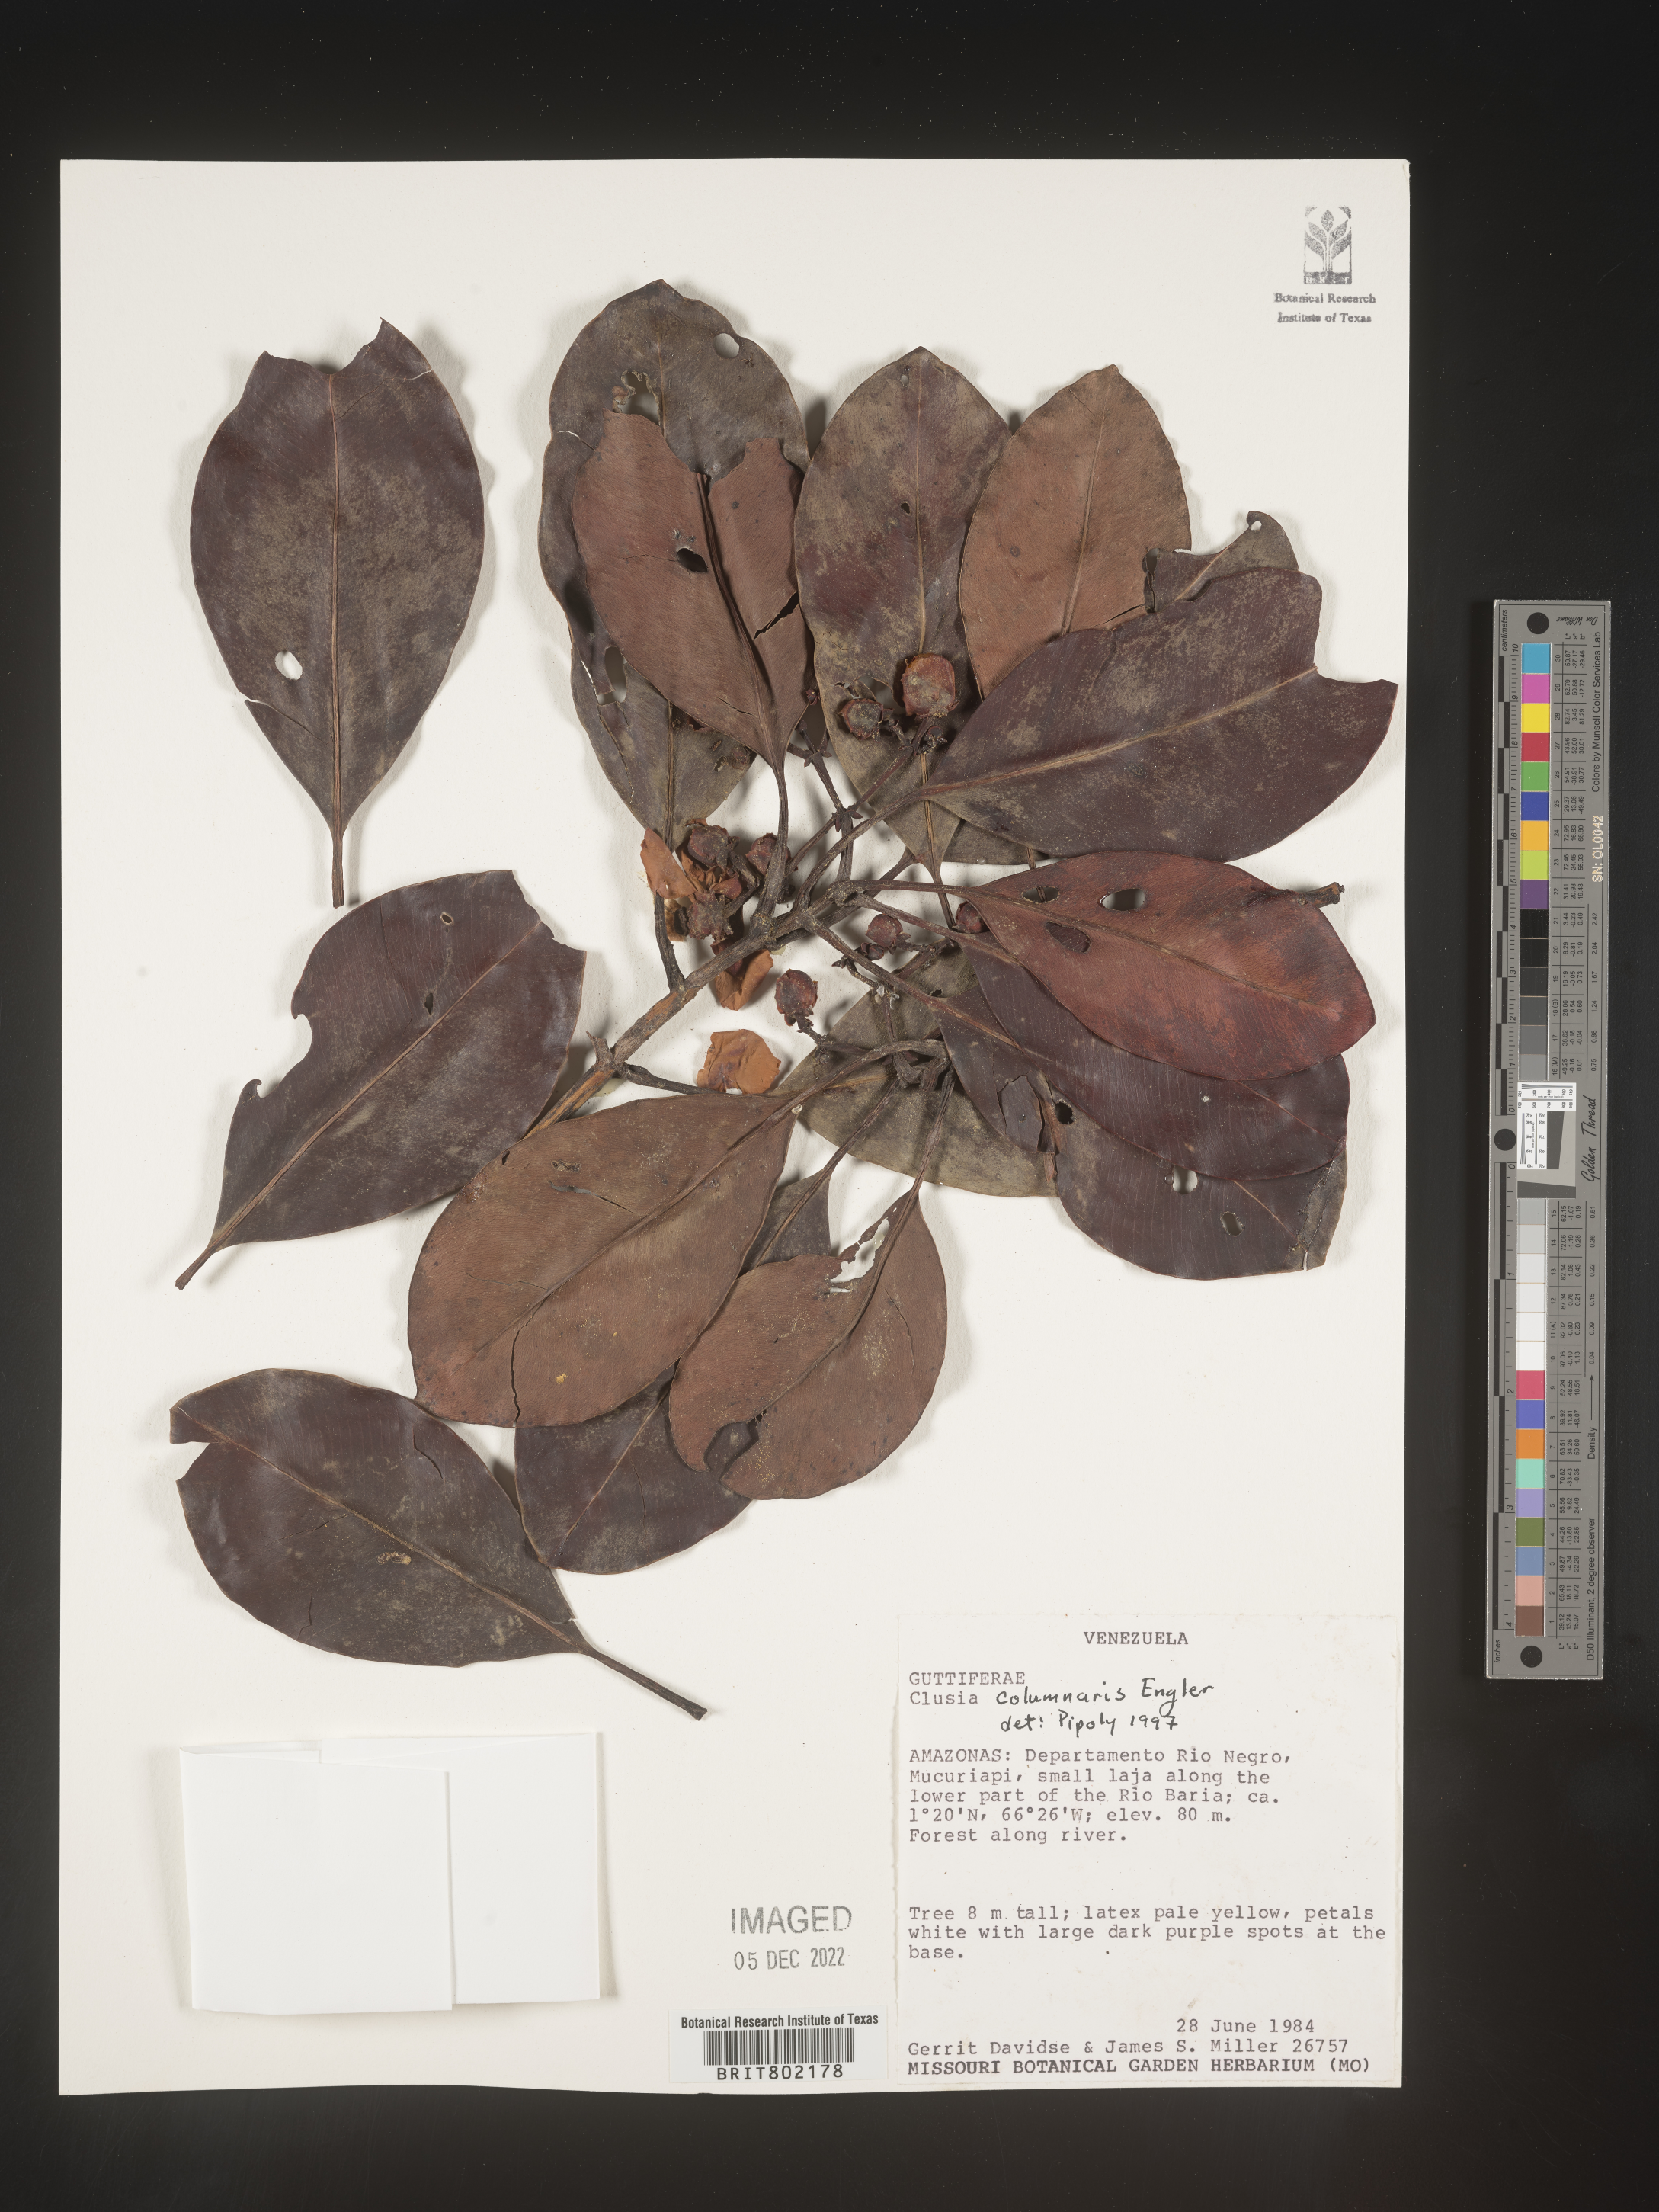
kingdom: Plantae
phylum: Tracheophyta
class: Magnoliopsida
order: Malpighiales
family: Clusiaceae
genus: Clusia
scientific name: Clusia columnaris
